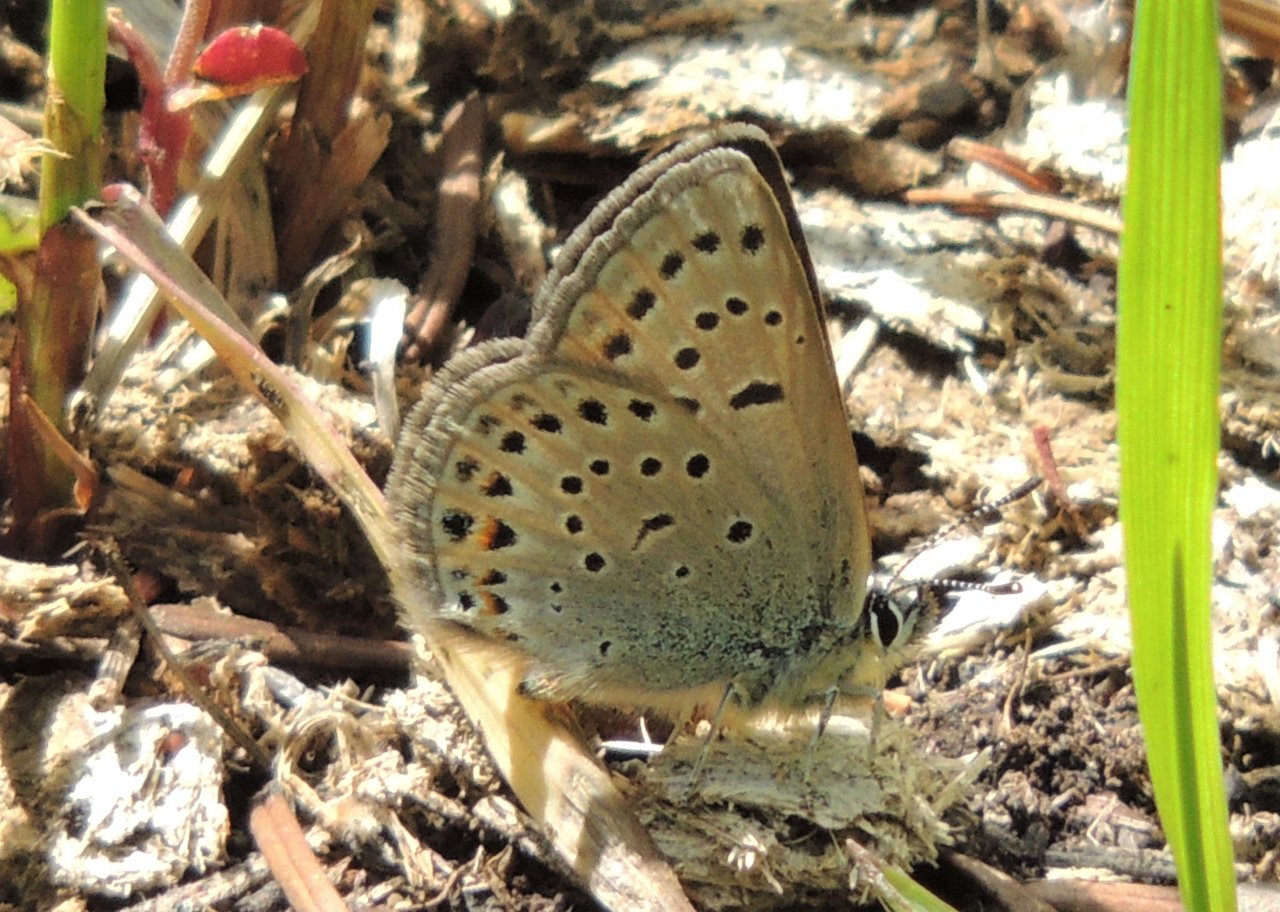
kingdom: Animalia
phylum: Arthropoda
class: Insecta
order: Lepidoptera
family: Lycaenidae
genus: Plebejus
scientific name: Plebejus saepiolus
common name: Greenish Blue
